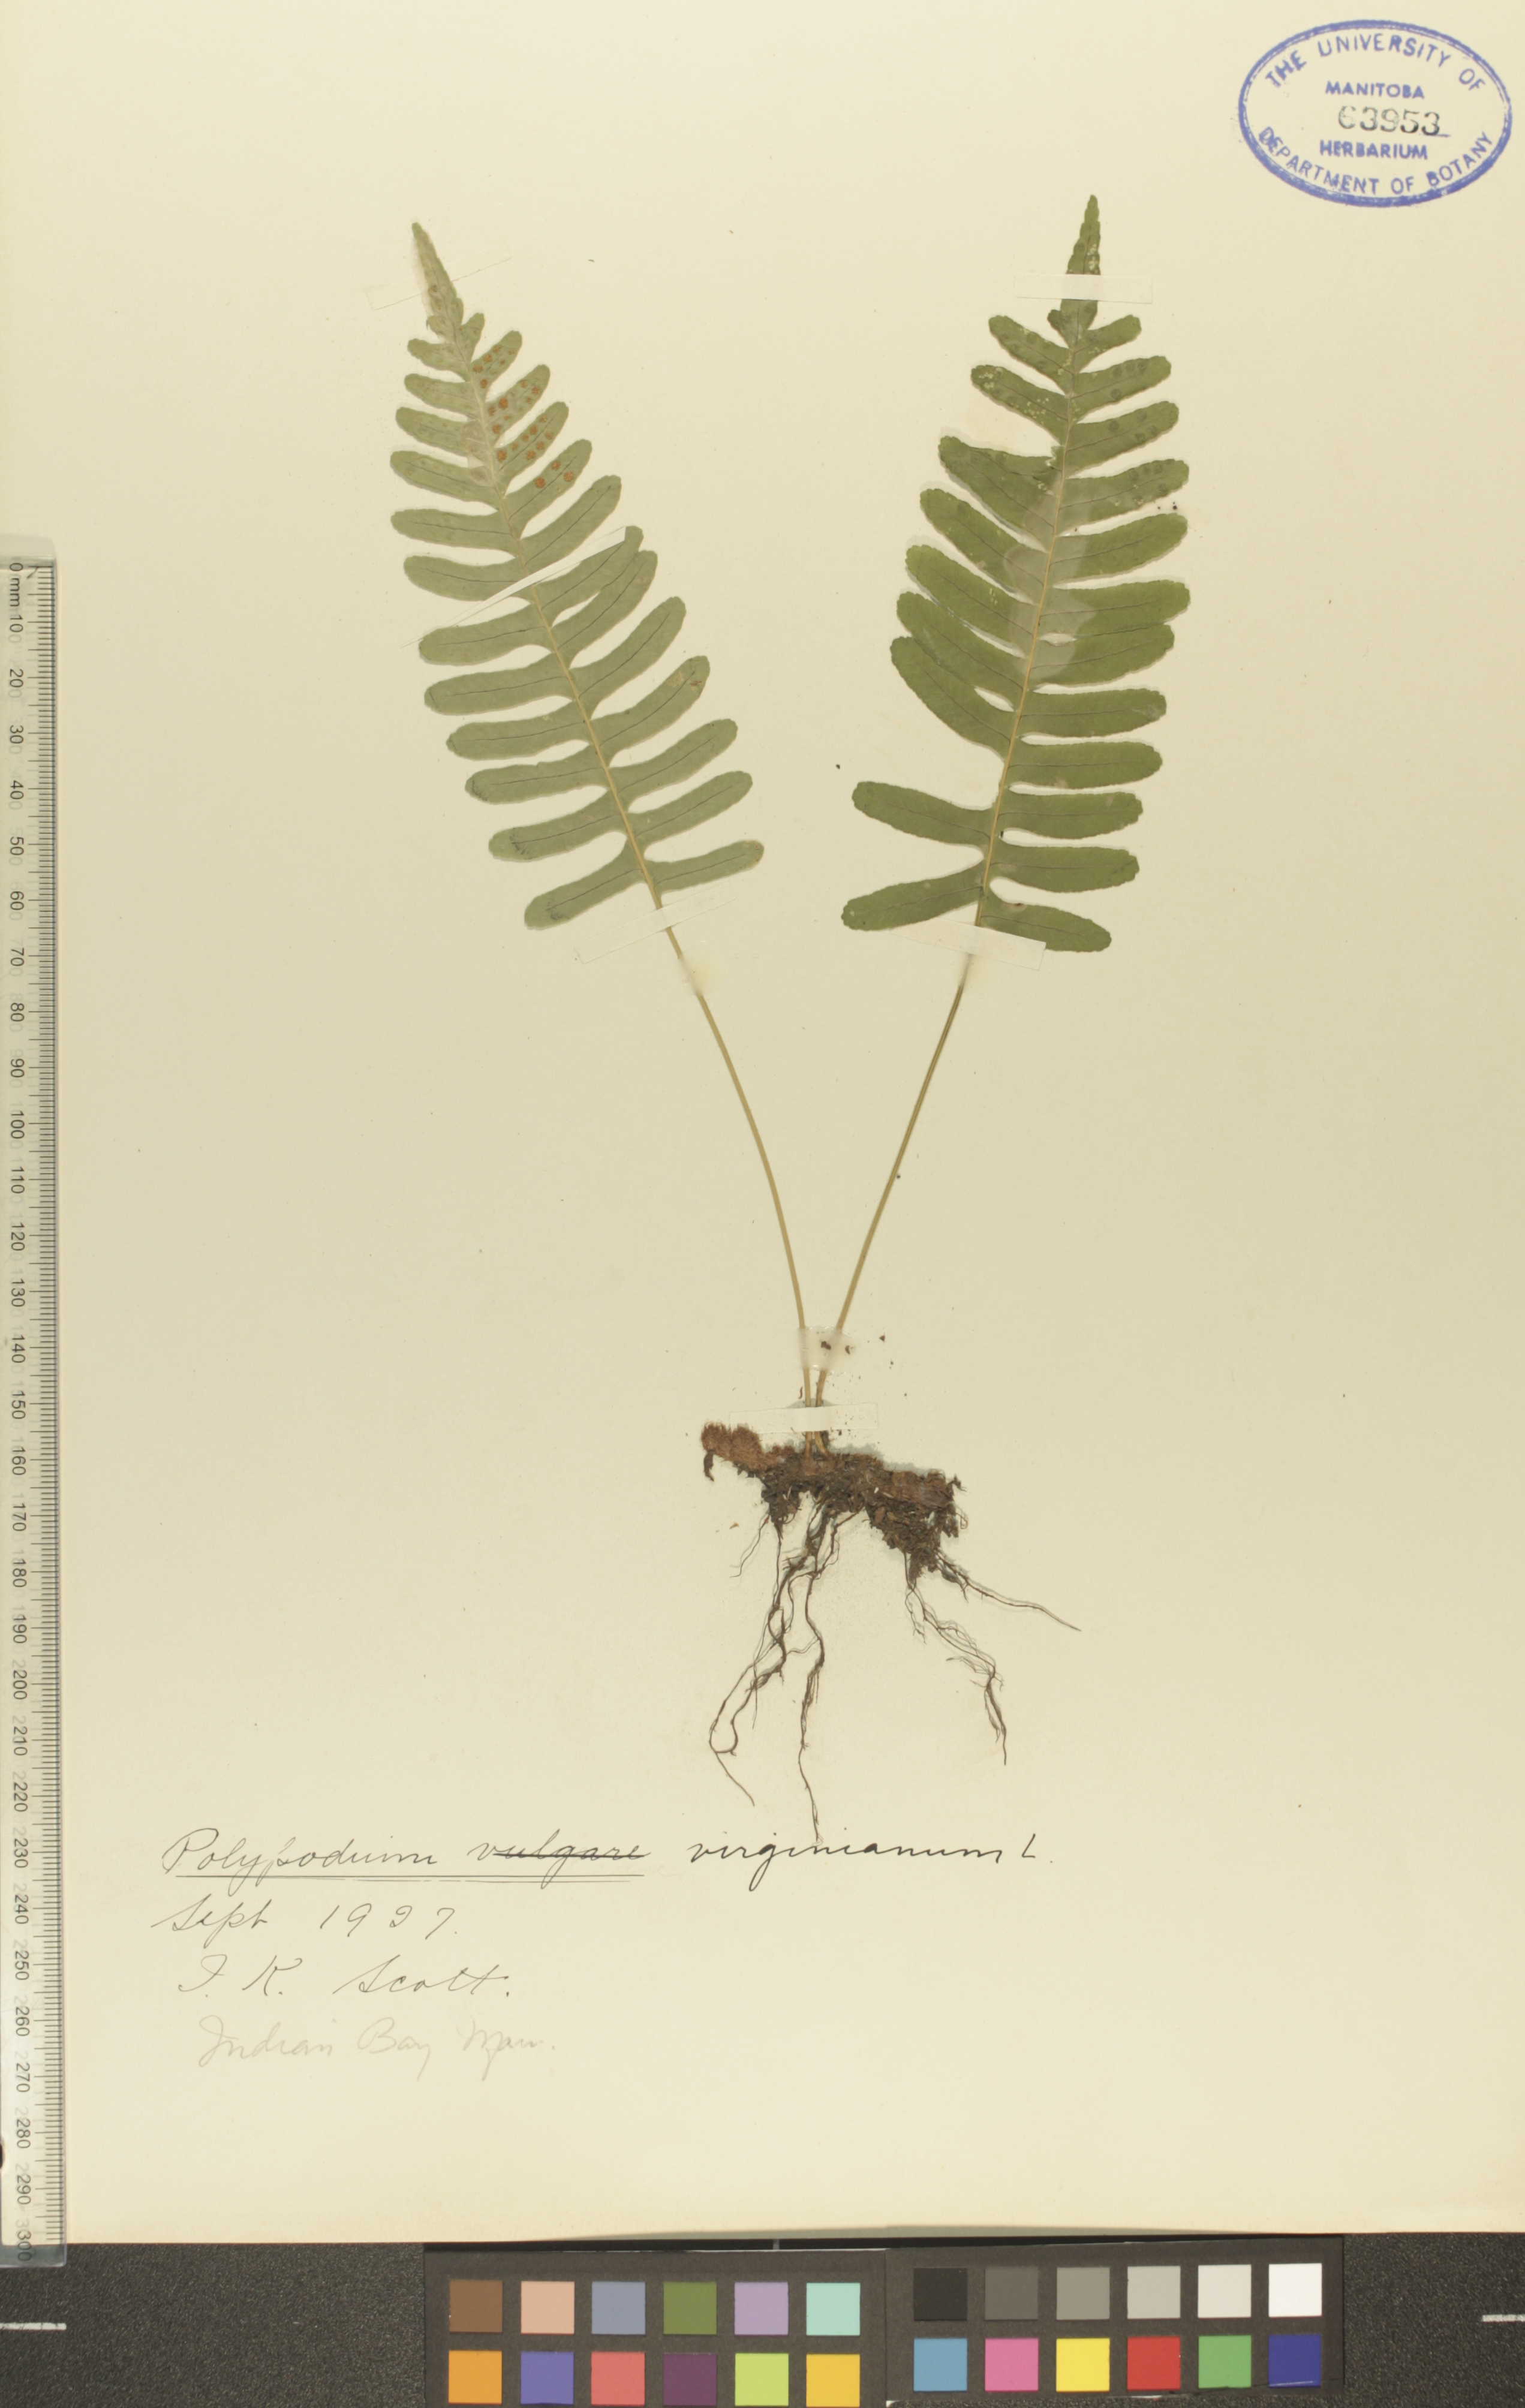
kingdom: Plantae
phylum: Tracheophyta
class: Polypodiopsida
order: Polypodiales
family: Polypodiaceae
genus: Polypodium
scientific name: Polypodium virginianum
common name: American wall fern
